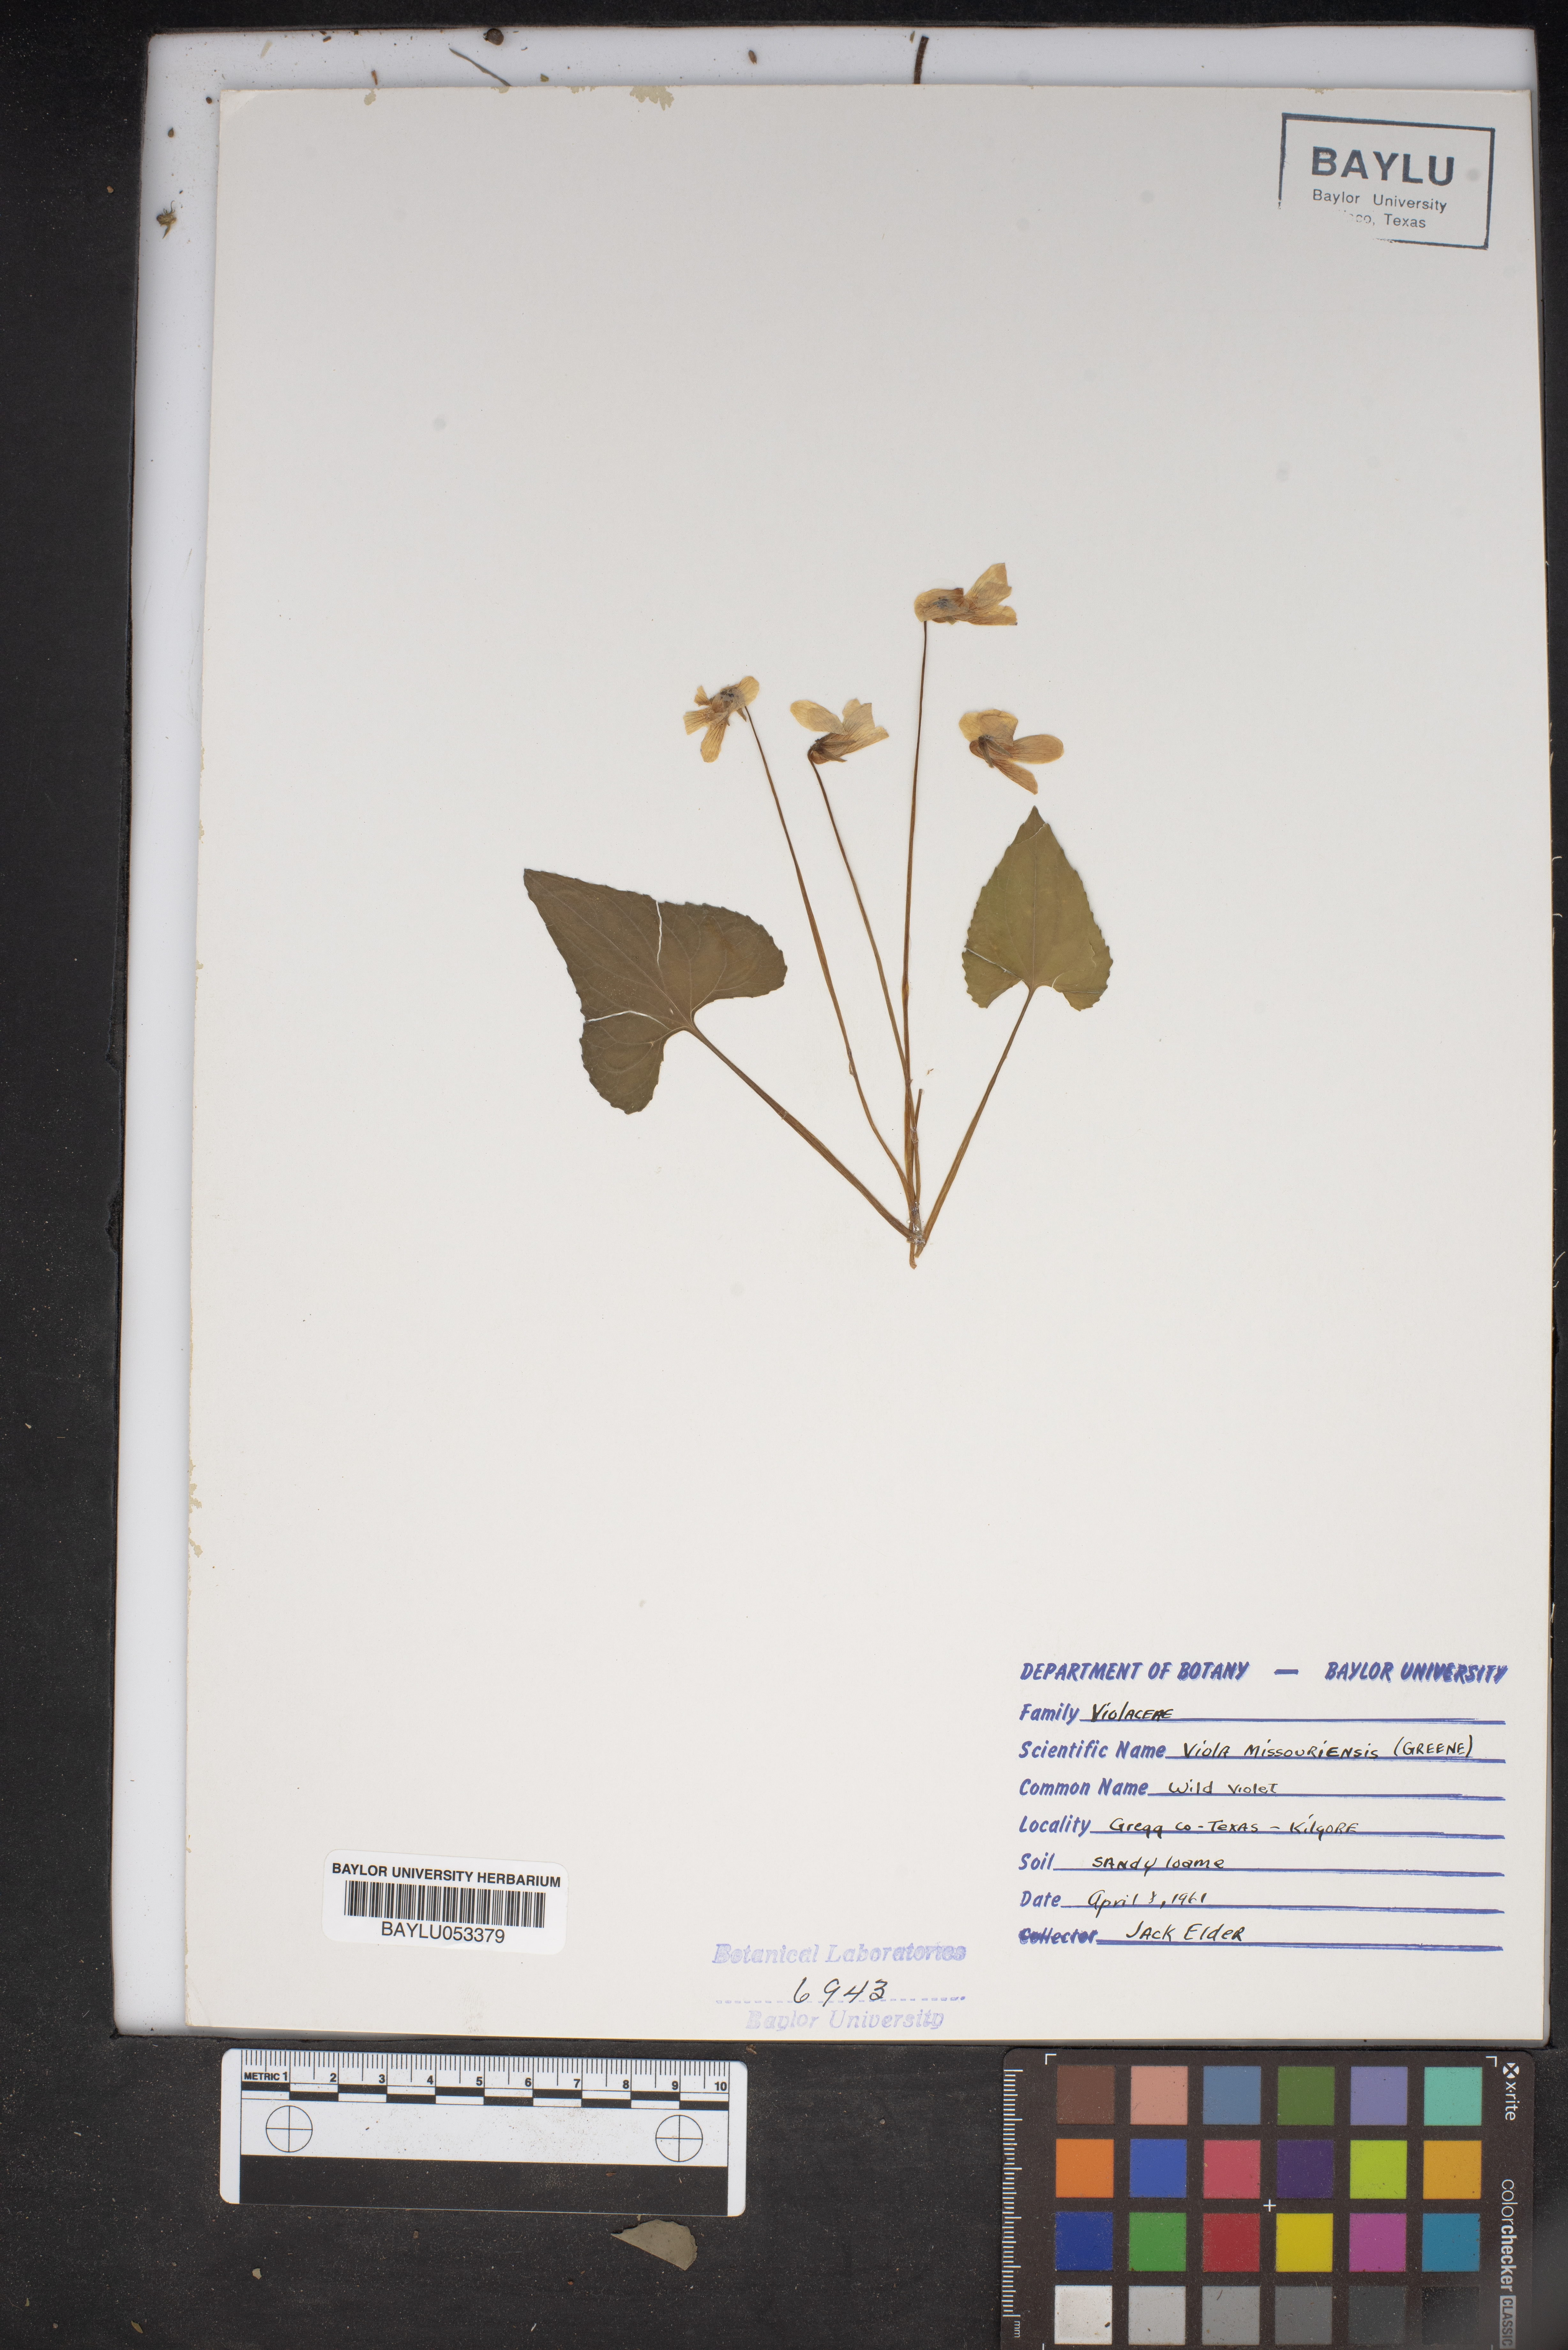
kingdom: Plantae
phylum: Tracheophyta
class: Magnoliopsida
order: Malpighiales
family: Violaceae
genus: Viola
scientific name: Viola missouriensis
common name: Missouri violet
